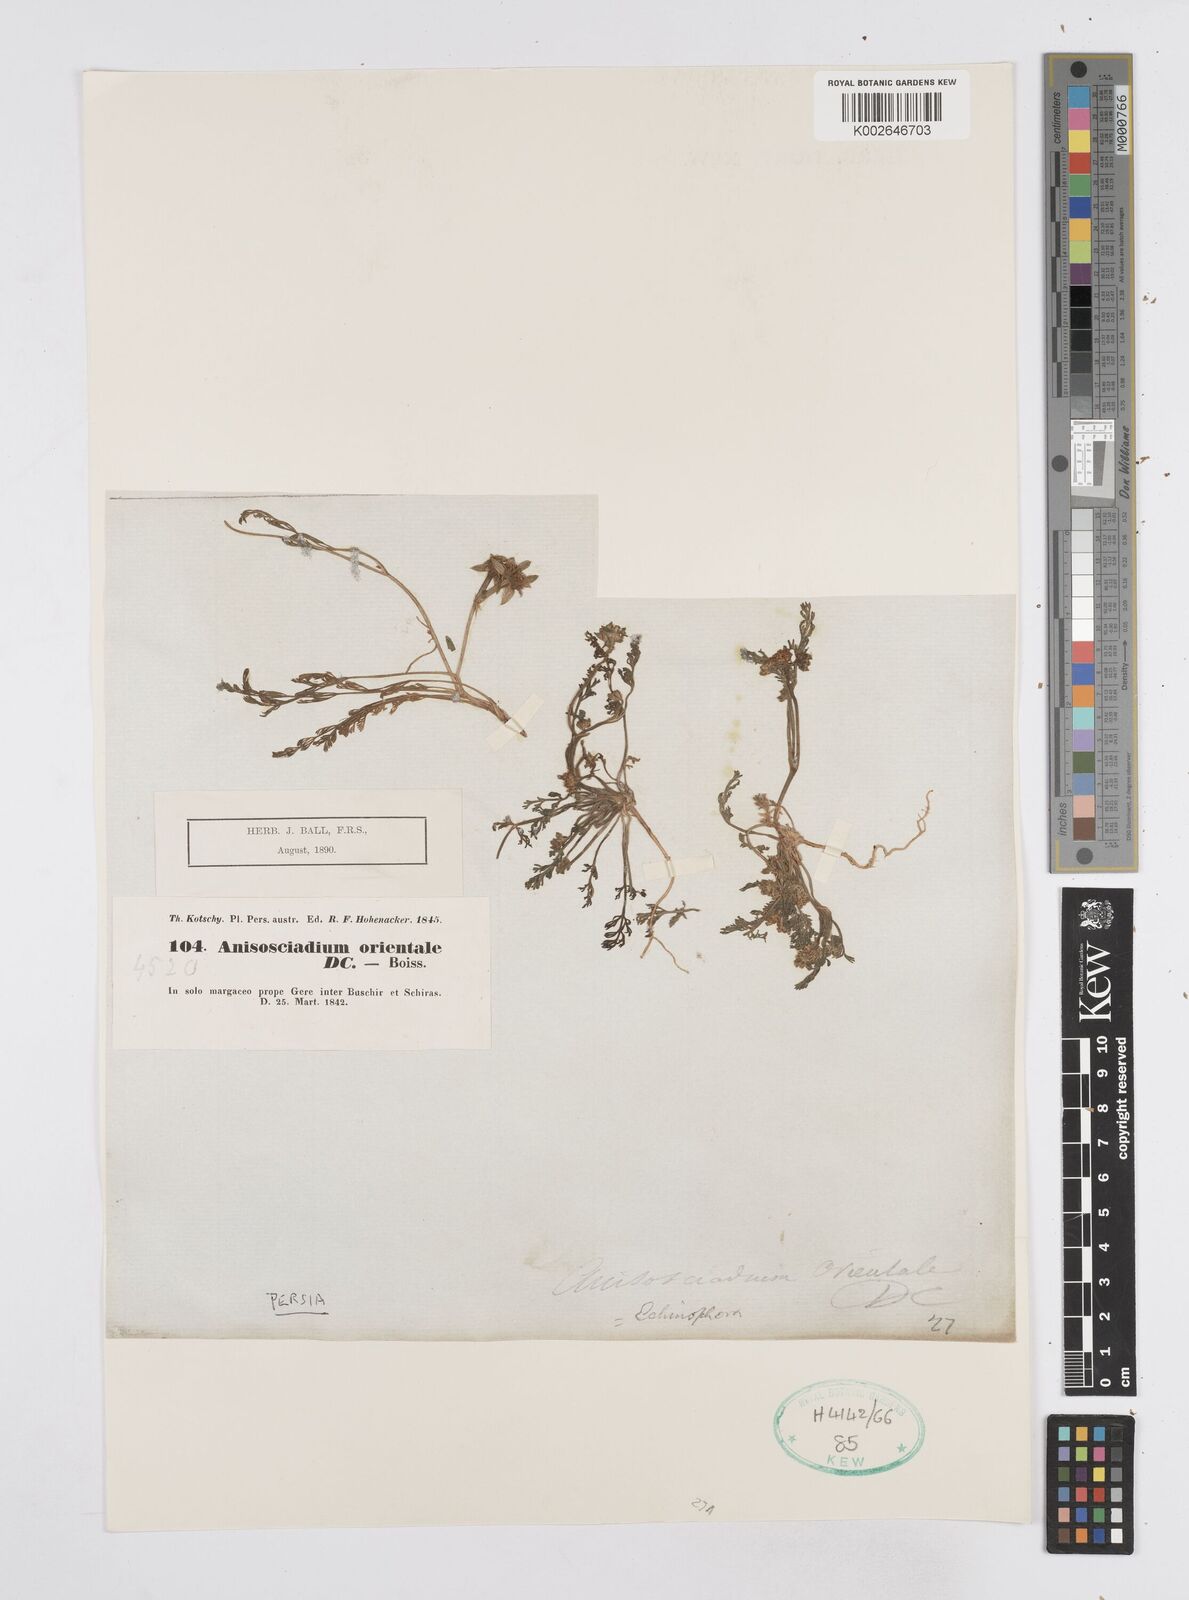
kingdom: Plantae
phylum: Tracheophyta
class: Magnoliopsida
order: Apiales
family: Apiaceae
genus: Anisosciadium
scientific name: Anisosciadium orientale
